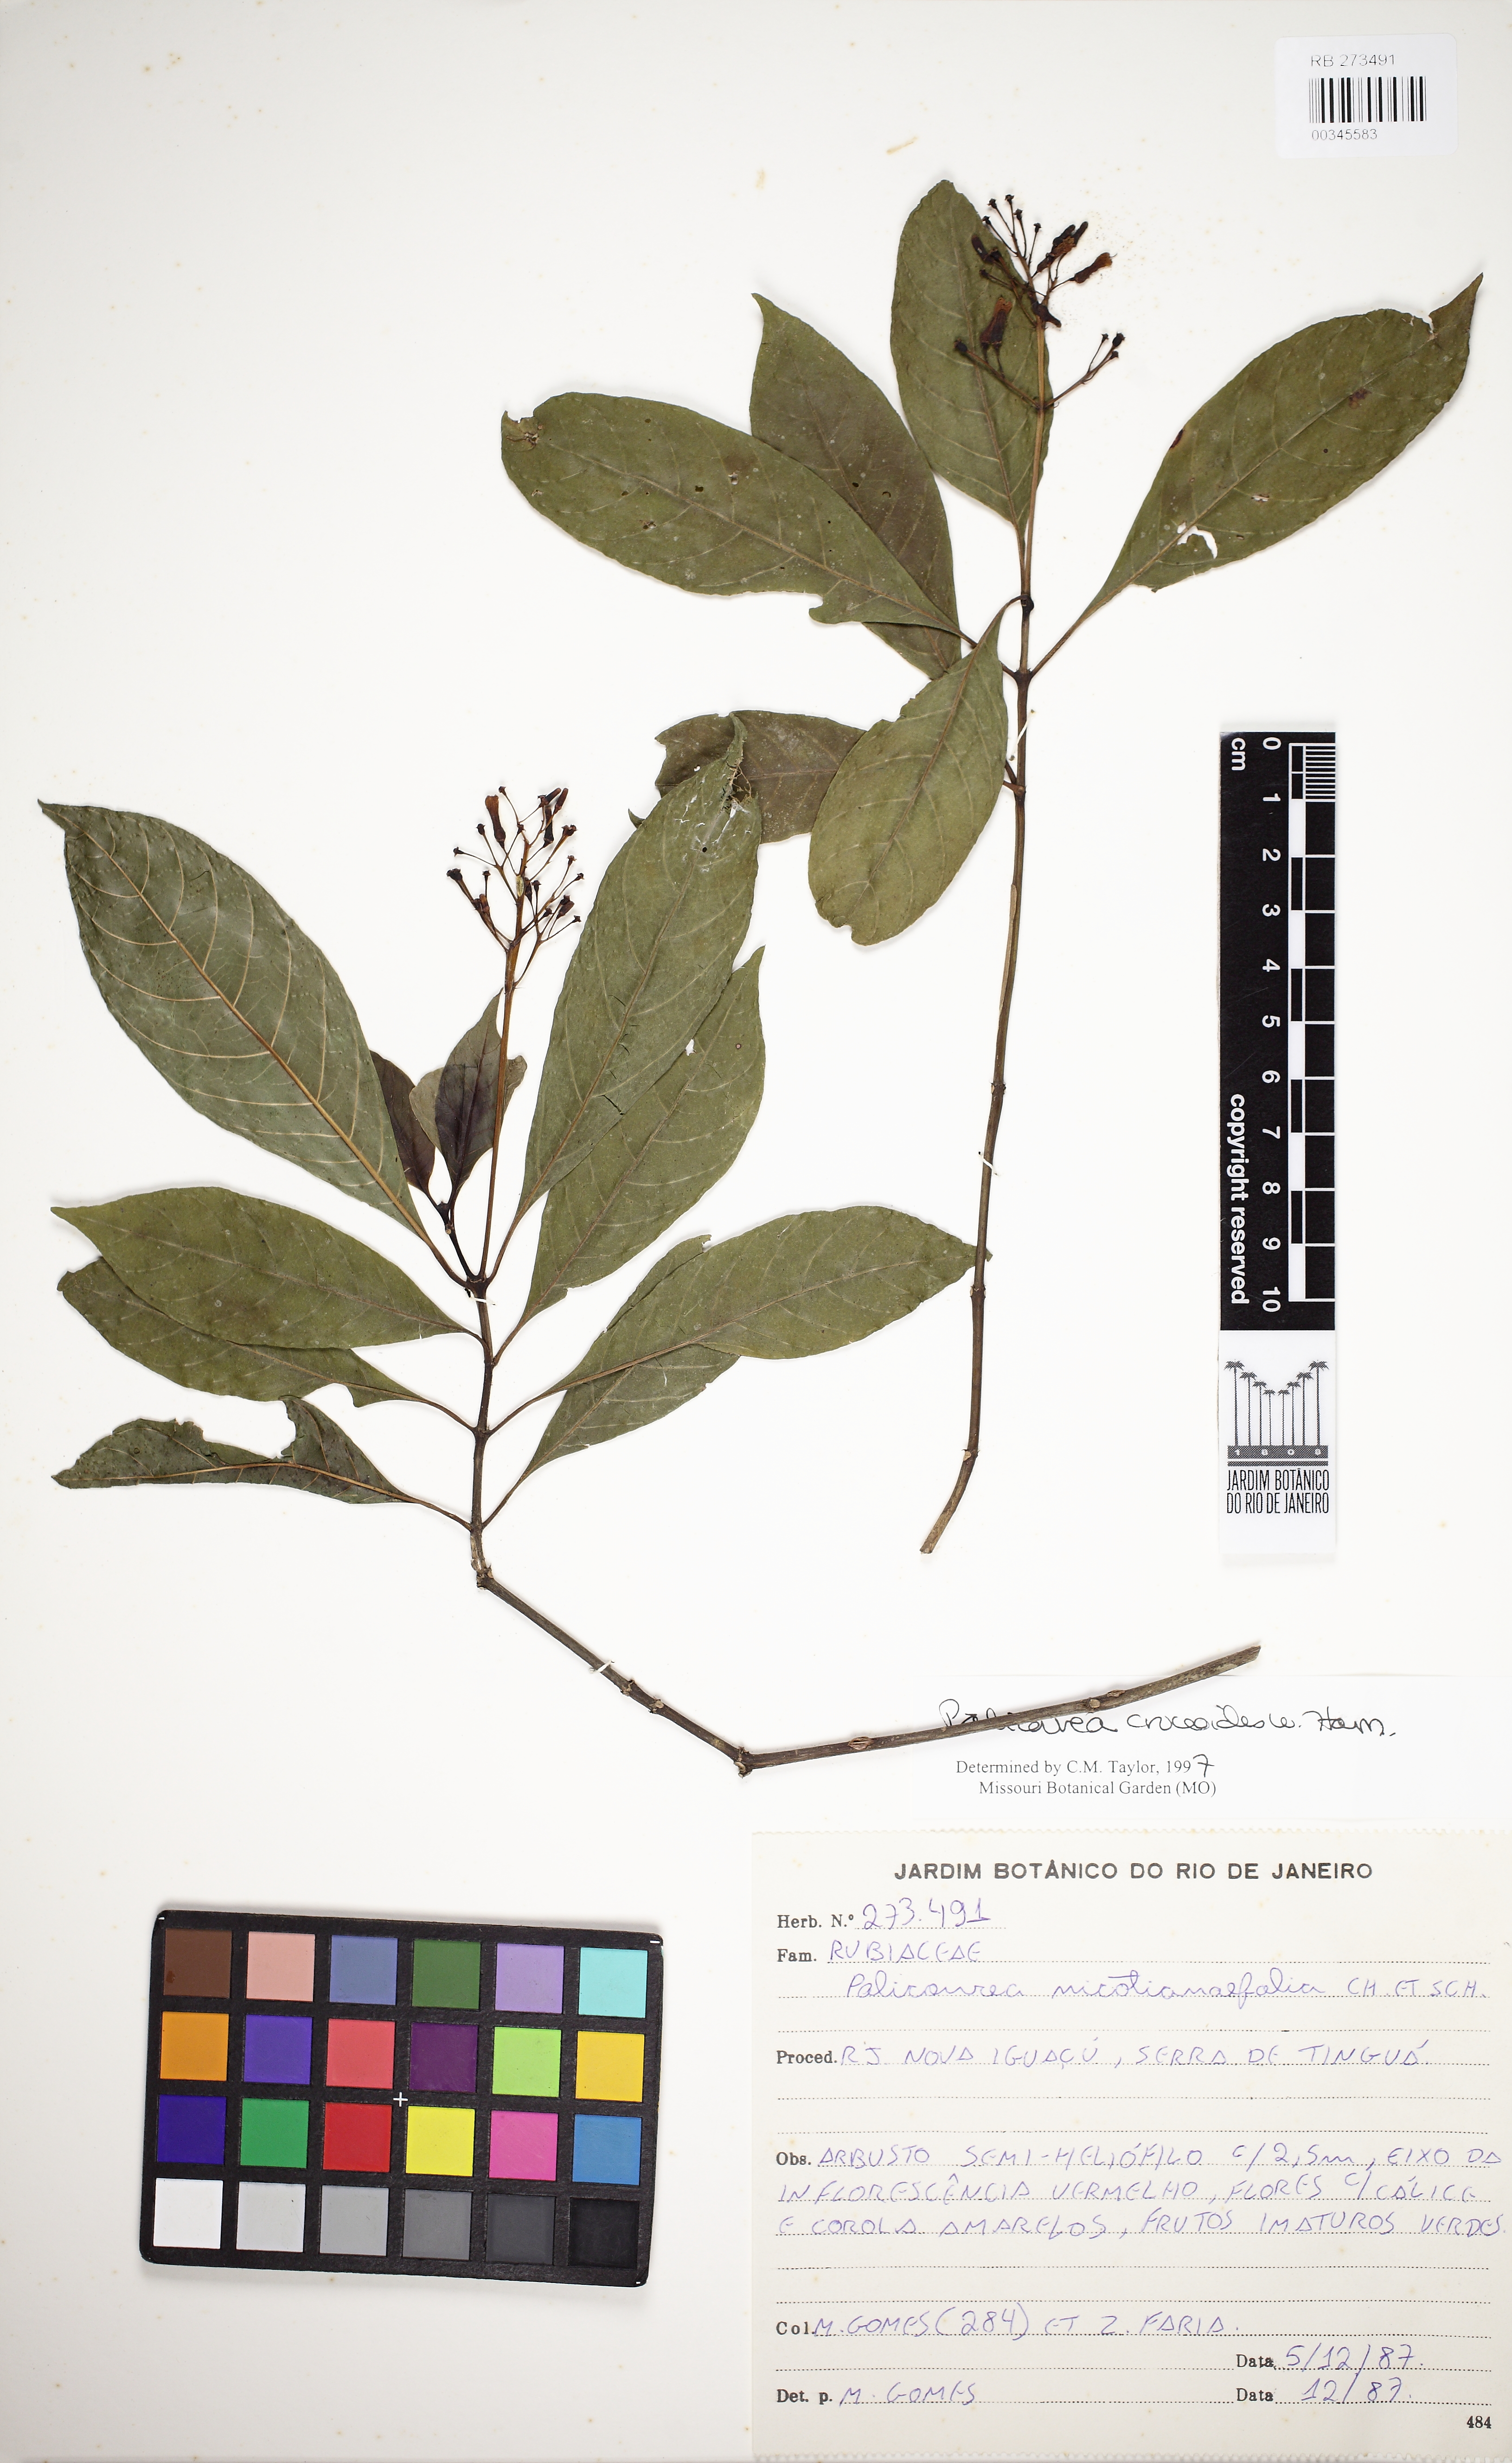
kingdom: Plantae
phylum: Tracheophyta
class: Magnoliopsida
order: Gentianales
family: Rubiaceae
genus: Palicourea
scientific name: Palicourea
